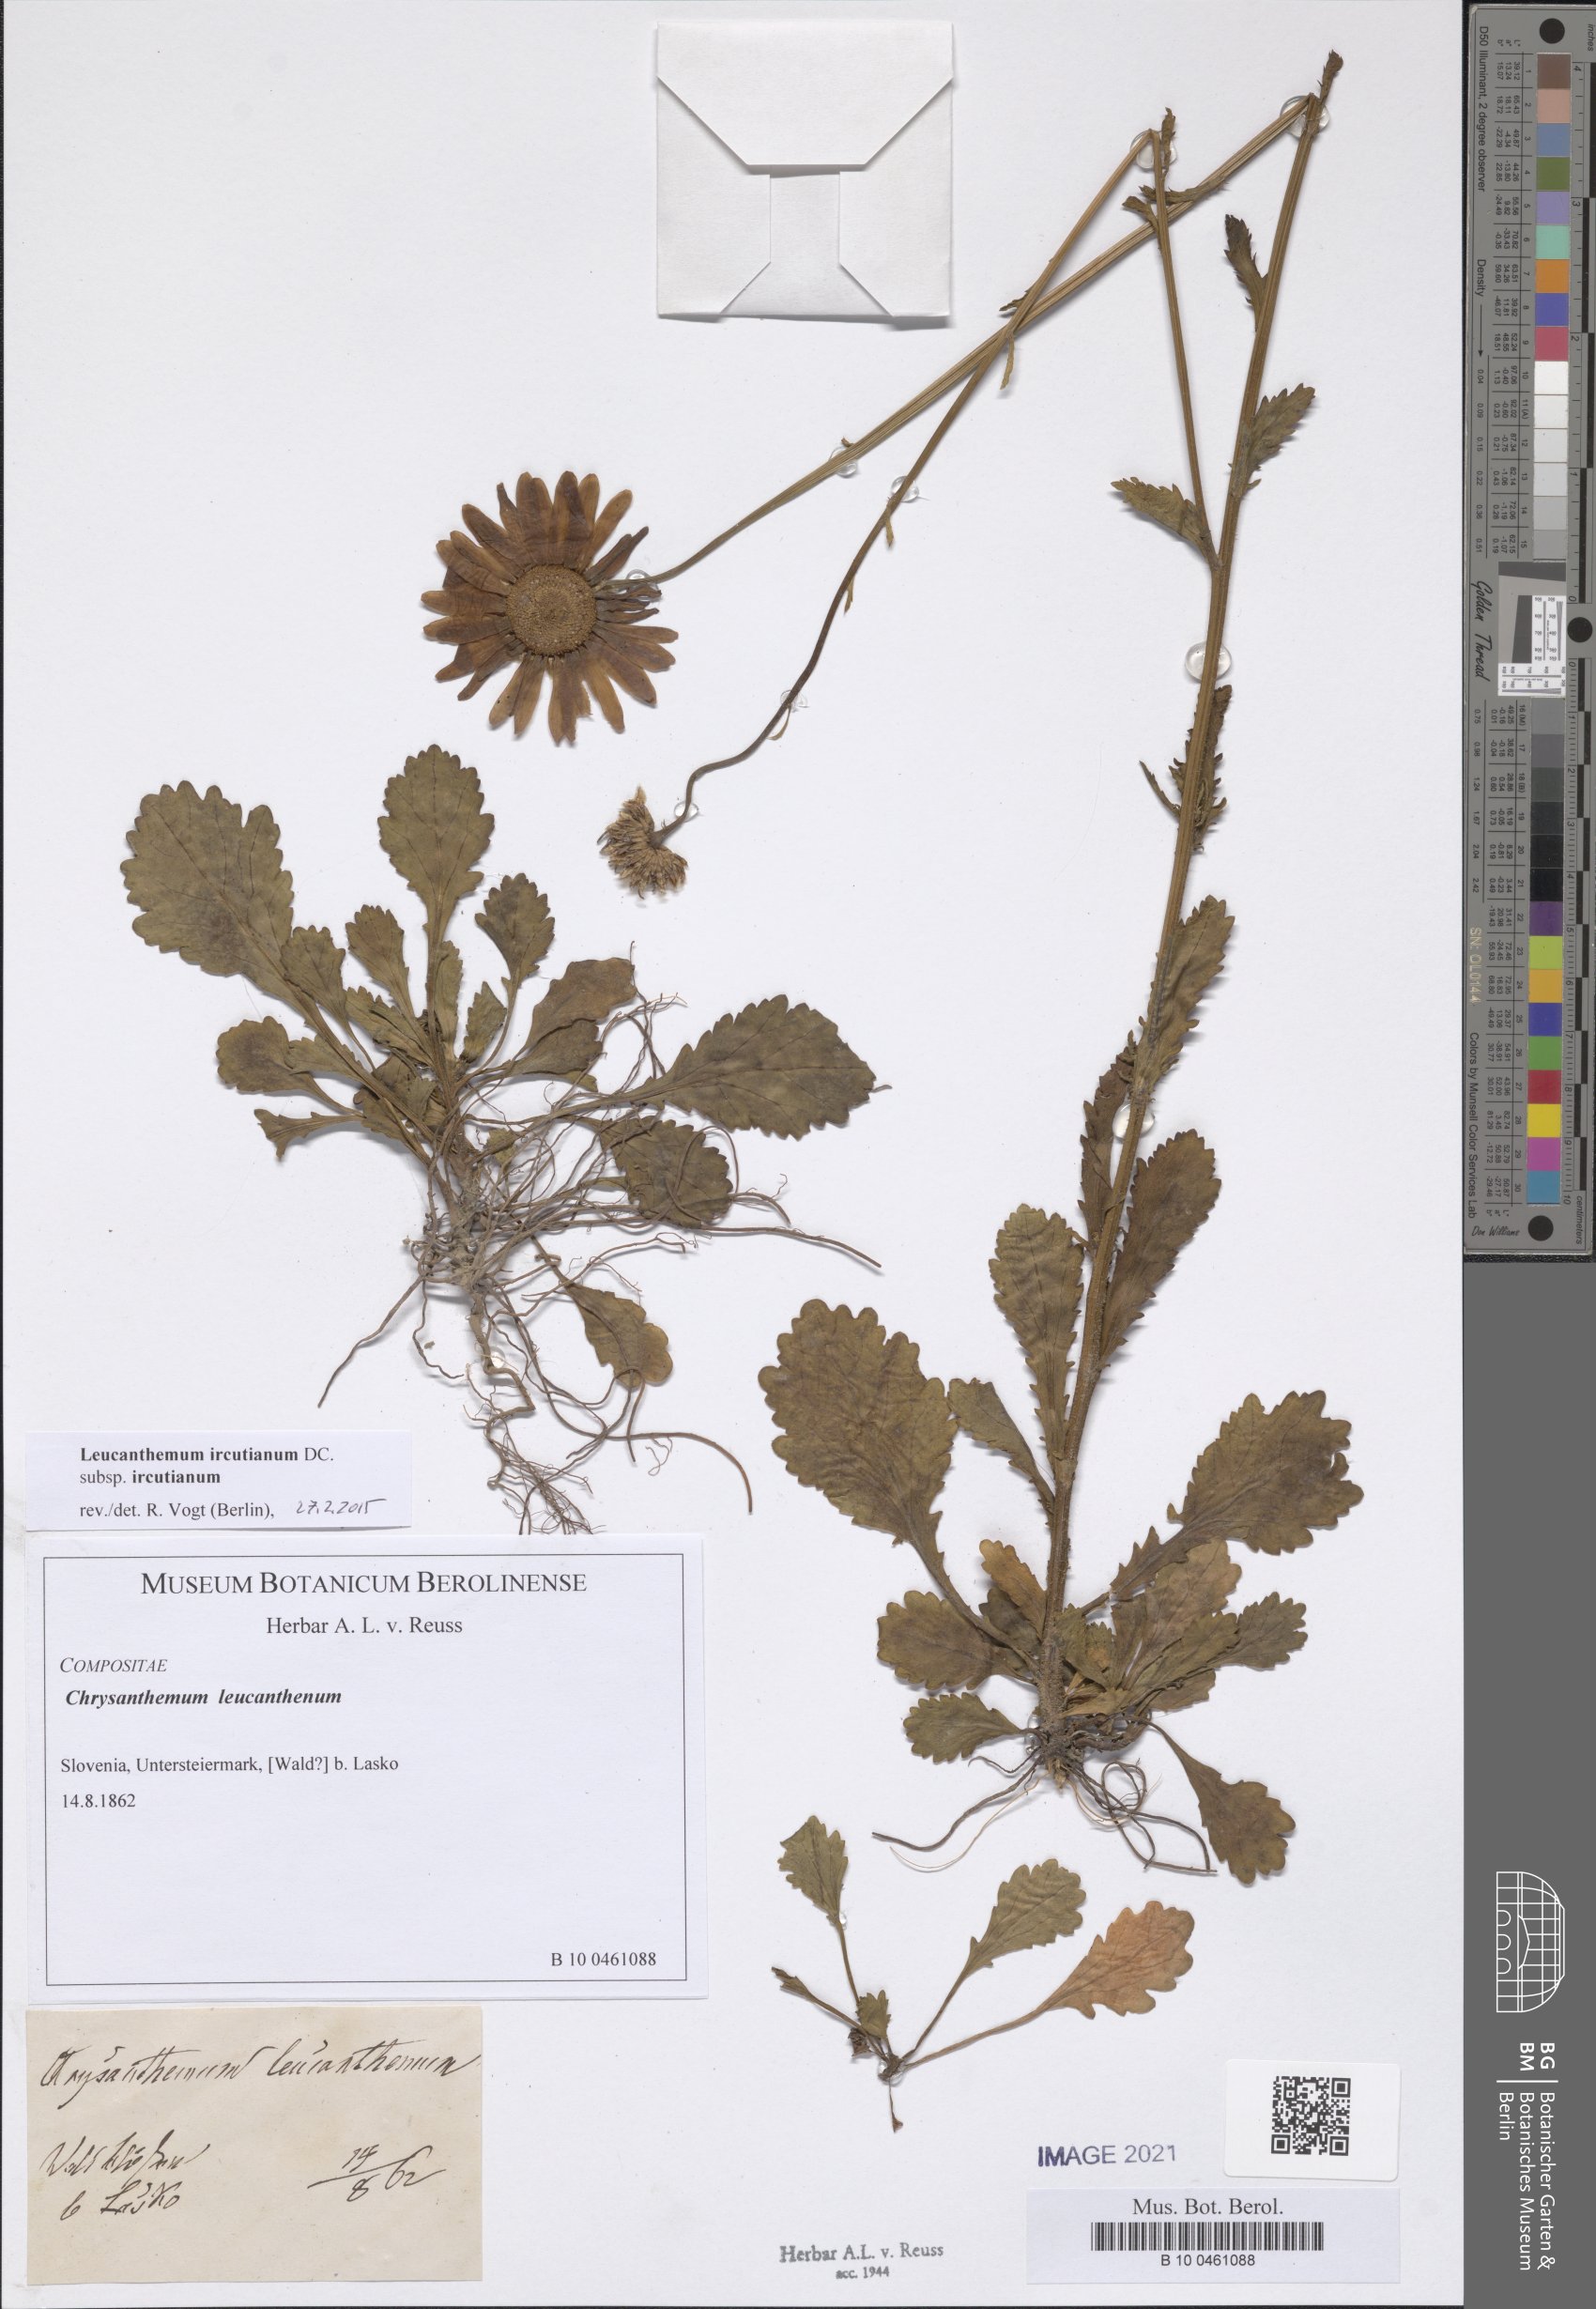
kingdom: Plantae
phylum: Tracheophyta
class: Magnoliopsida
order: Asterales
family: Asteraceae
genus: Leucanthemum
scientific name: Leucanthemum ircutianum
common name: Daisy
